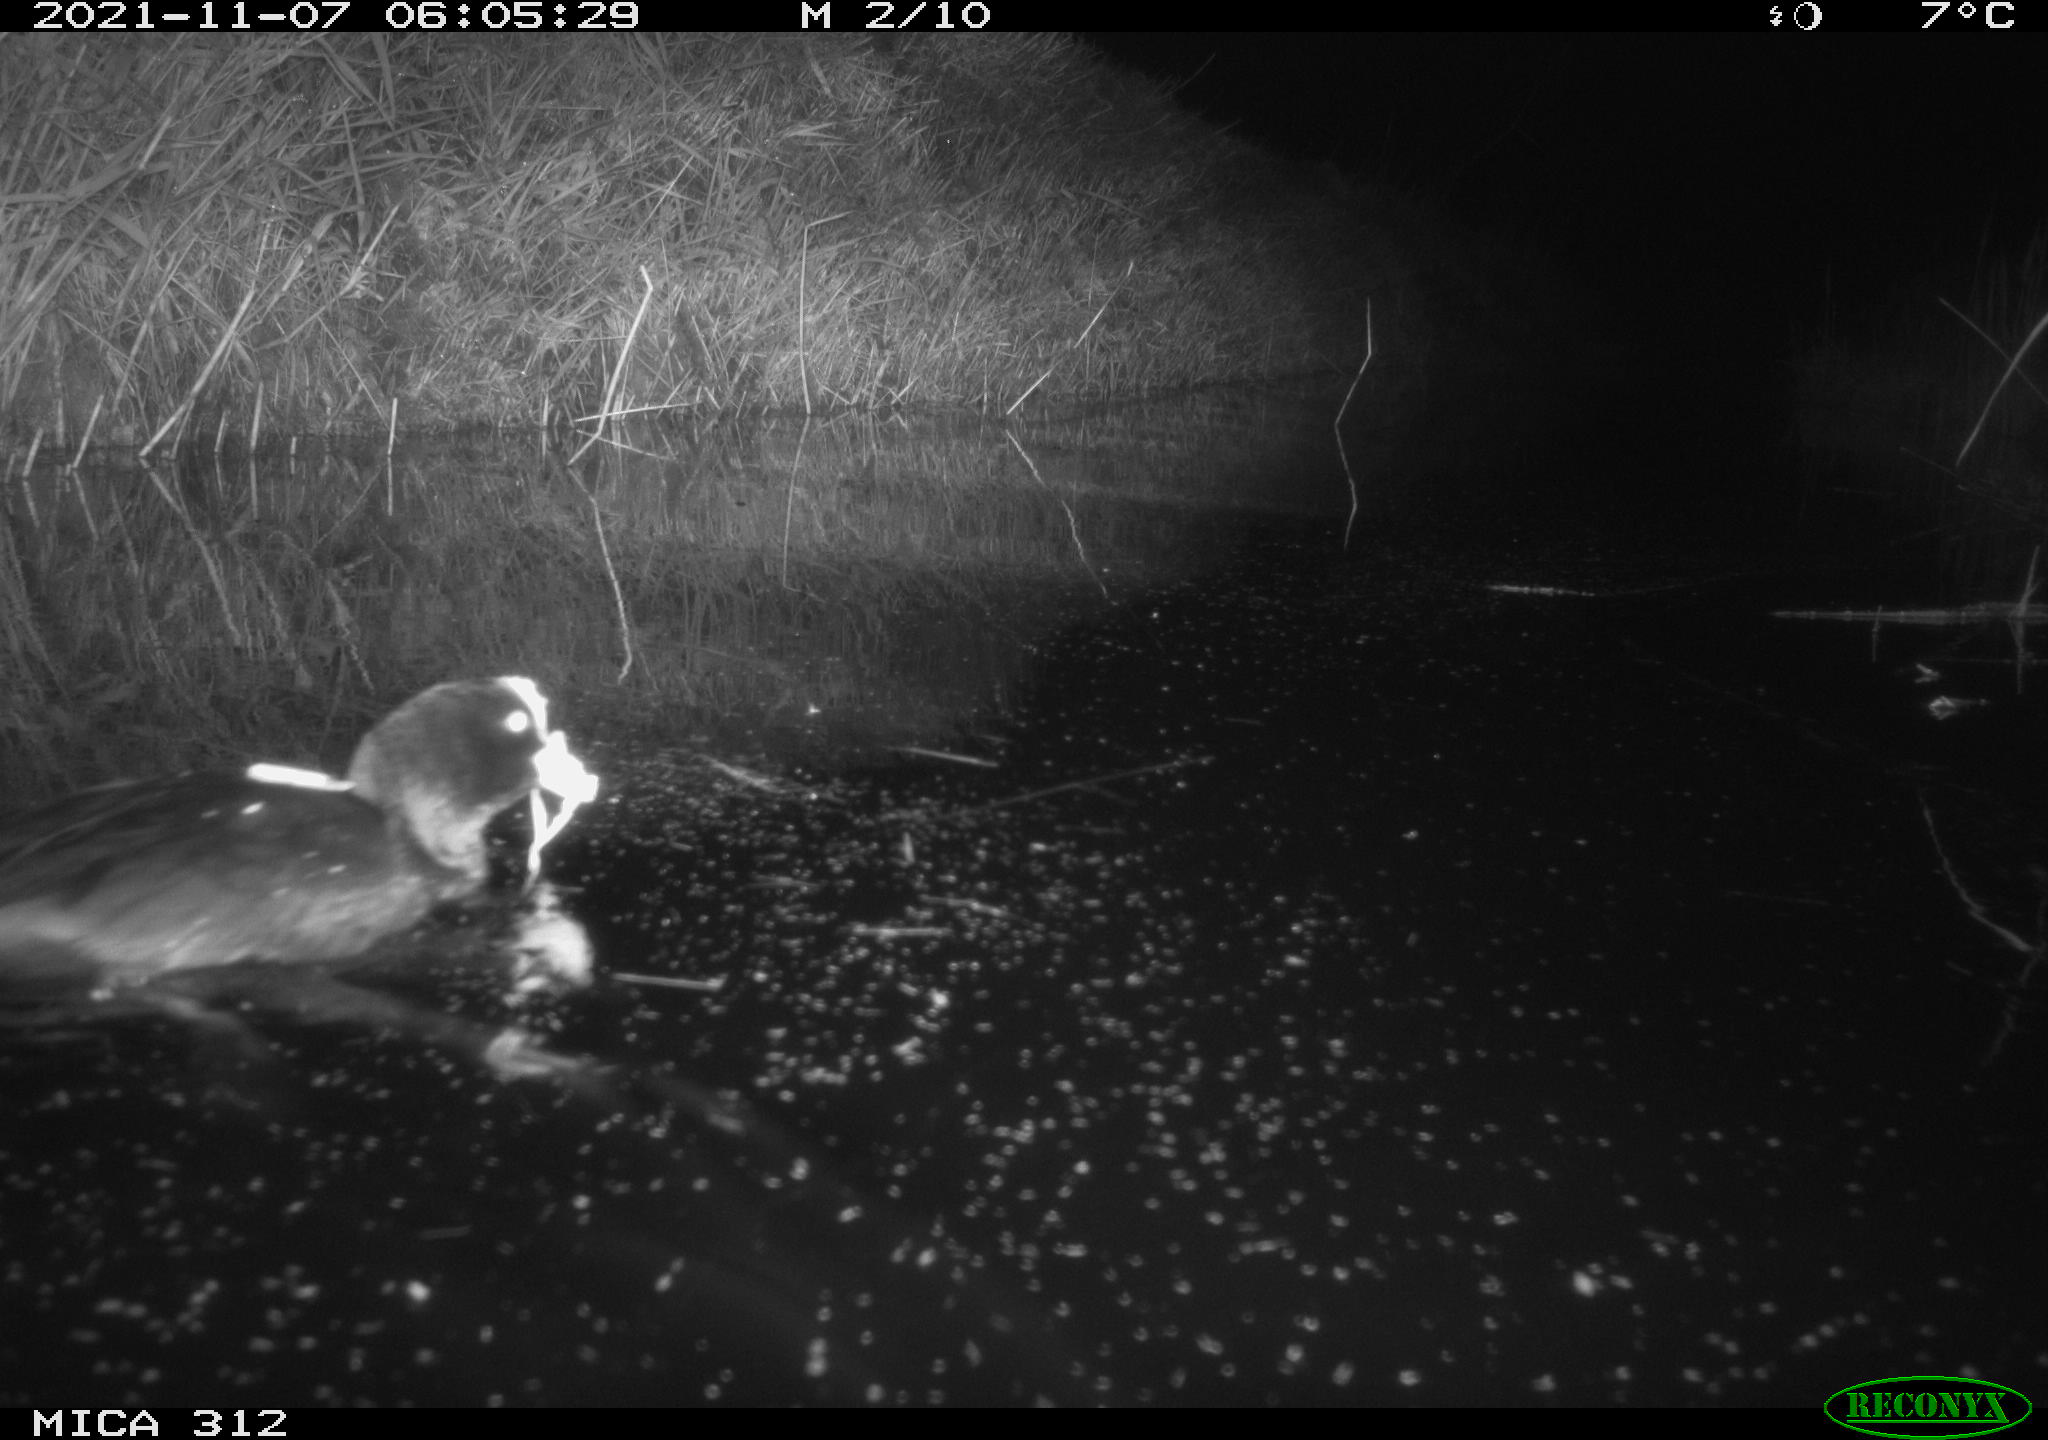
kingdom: Animalia
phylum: Chordata
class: Aves
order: Gruiformes
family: Rallidae
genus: Fulica
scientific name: Fulica atra
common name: Eurasian coot
